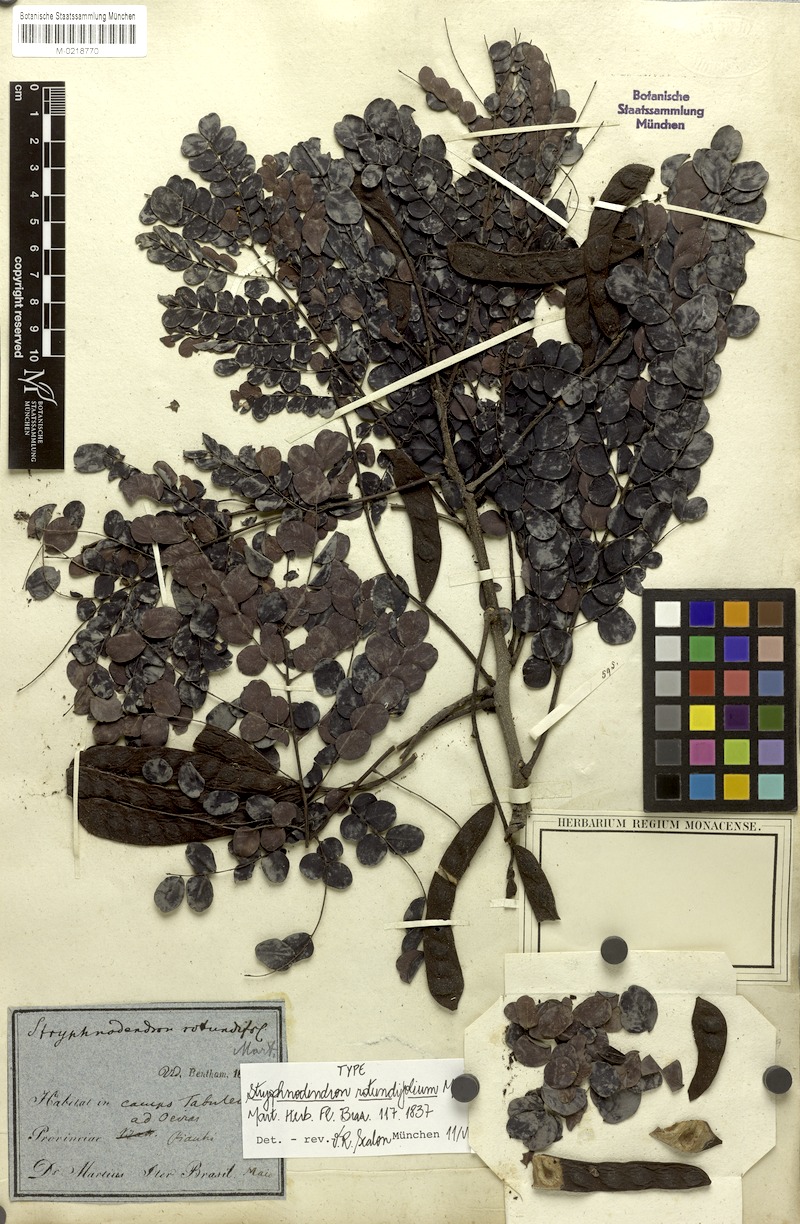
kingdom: Plantae
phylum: Tracheophyta
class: Magnoliopsida
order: Fabales
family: Fabaceae
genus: Stryphnodendron
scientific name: Stryphnodendron rotundifolium
